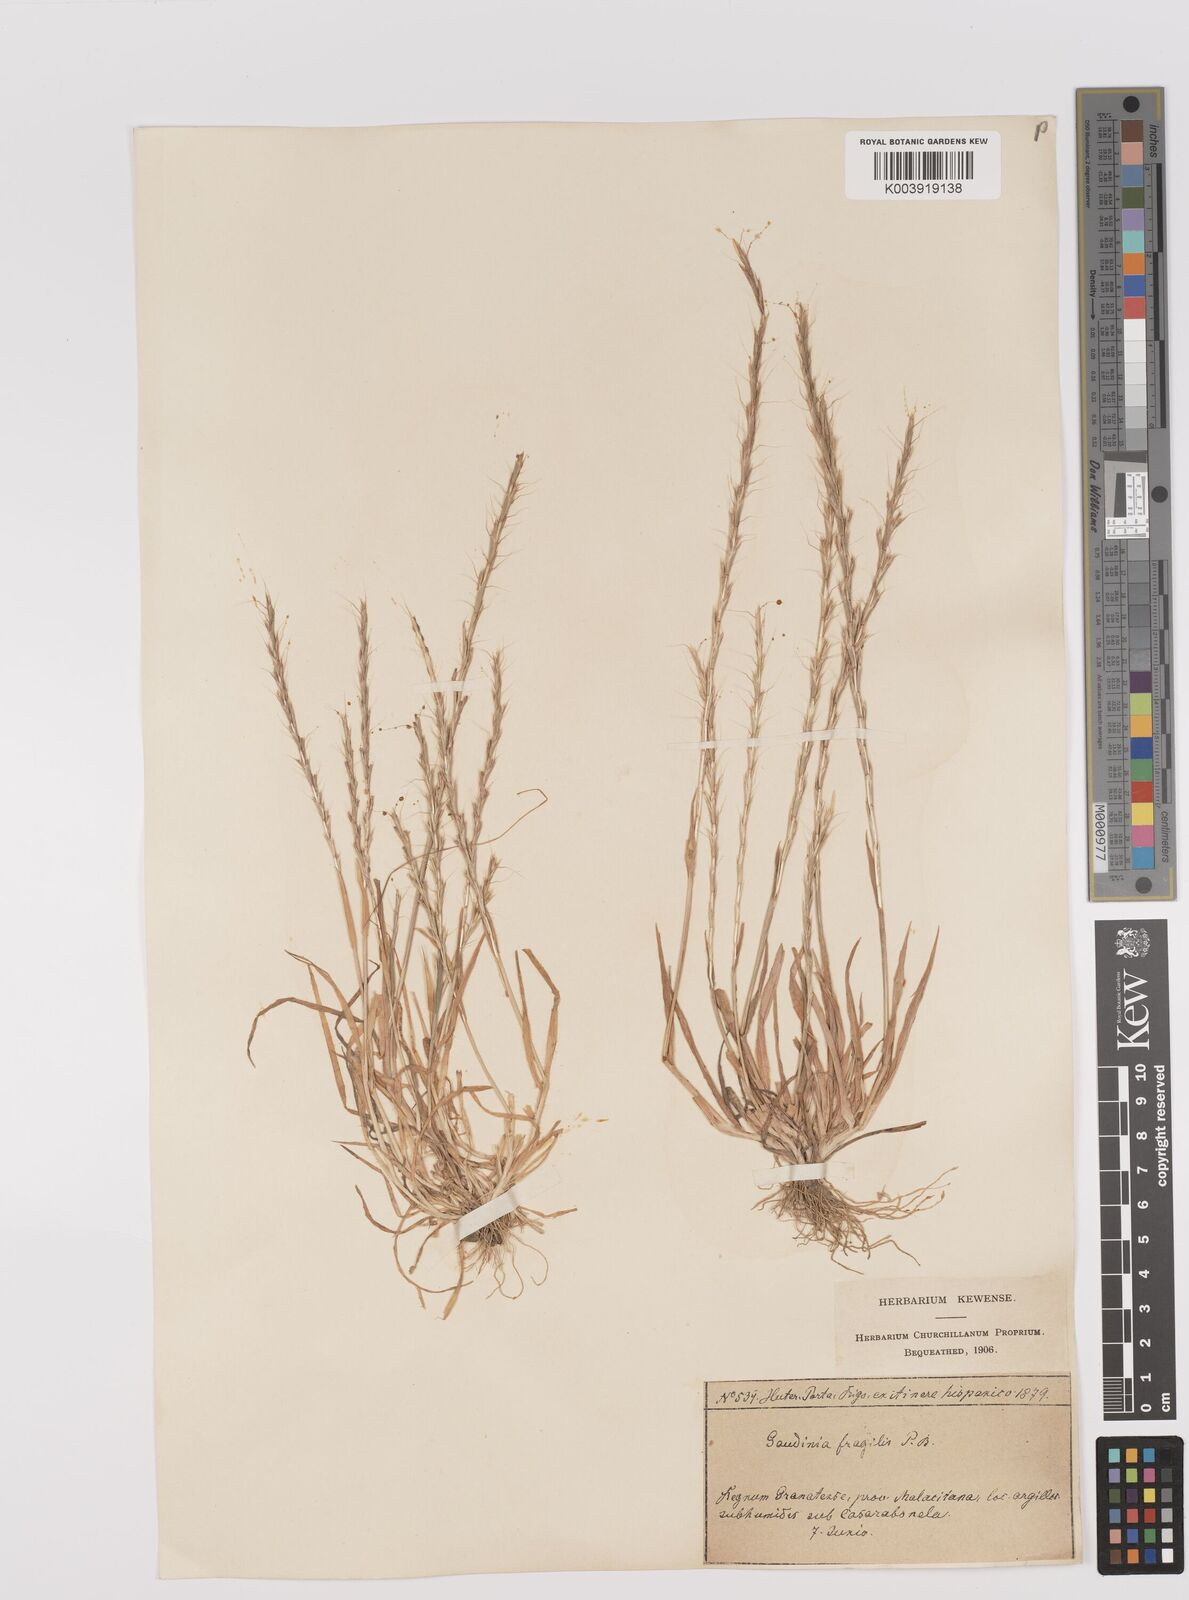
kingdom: Plantae
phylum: Tracheophyta
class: Liliopsida
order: Poales
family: Poaceae
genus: Gaudinia
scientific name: Gaudinia fragilis
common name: French oat-grass
